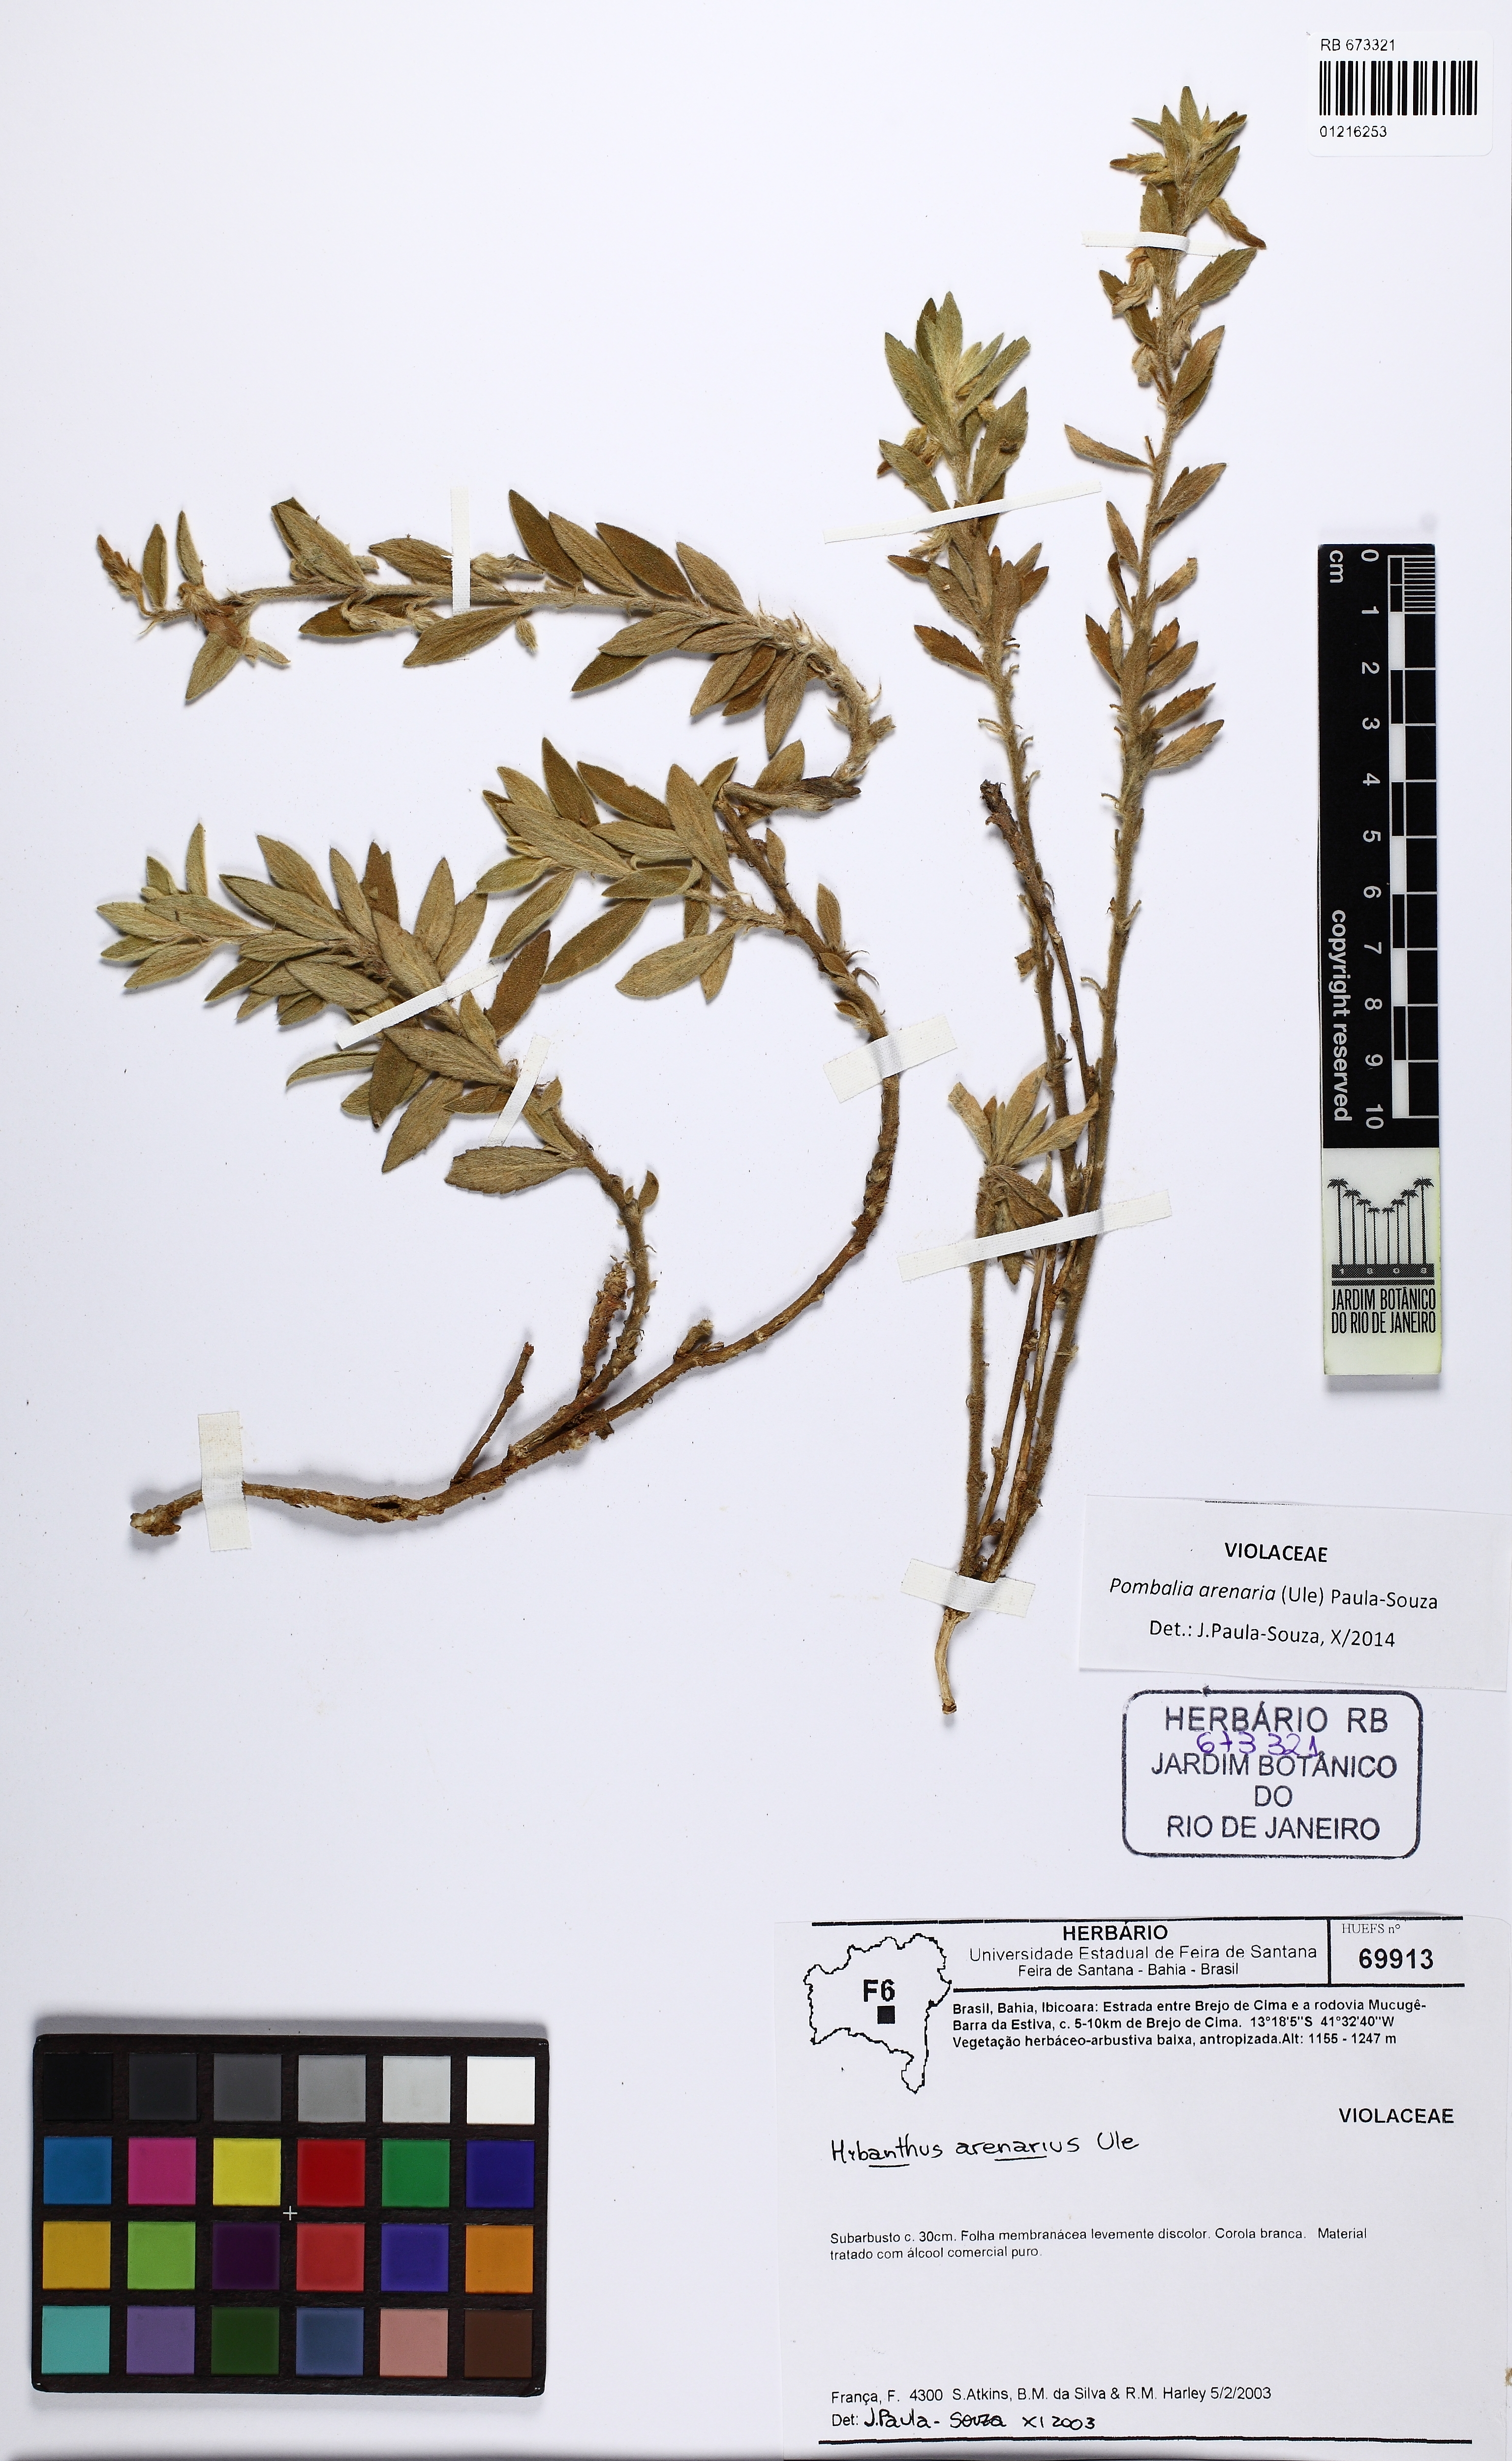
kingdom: Plantae
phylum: Tracheophyta
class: Magnoliopsida
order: Malpighiales
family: Violaceae
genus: Pombalia
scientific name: Pombalia arenaria
